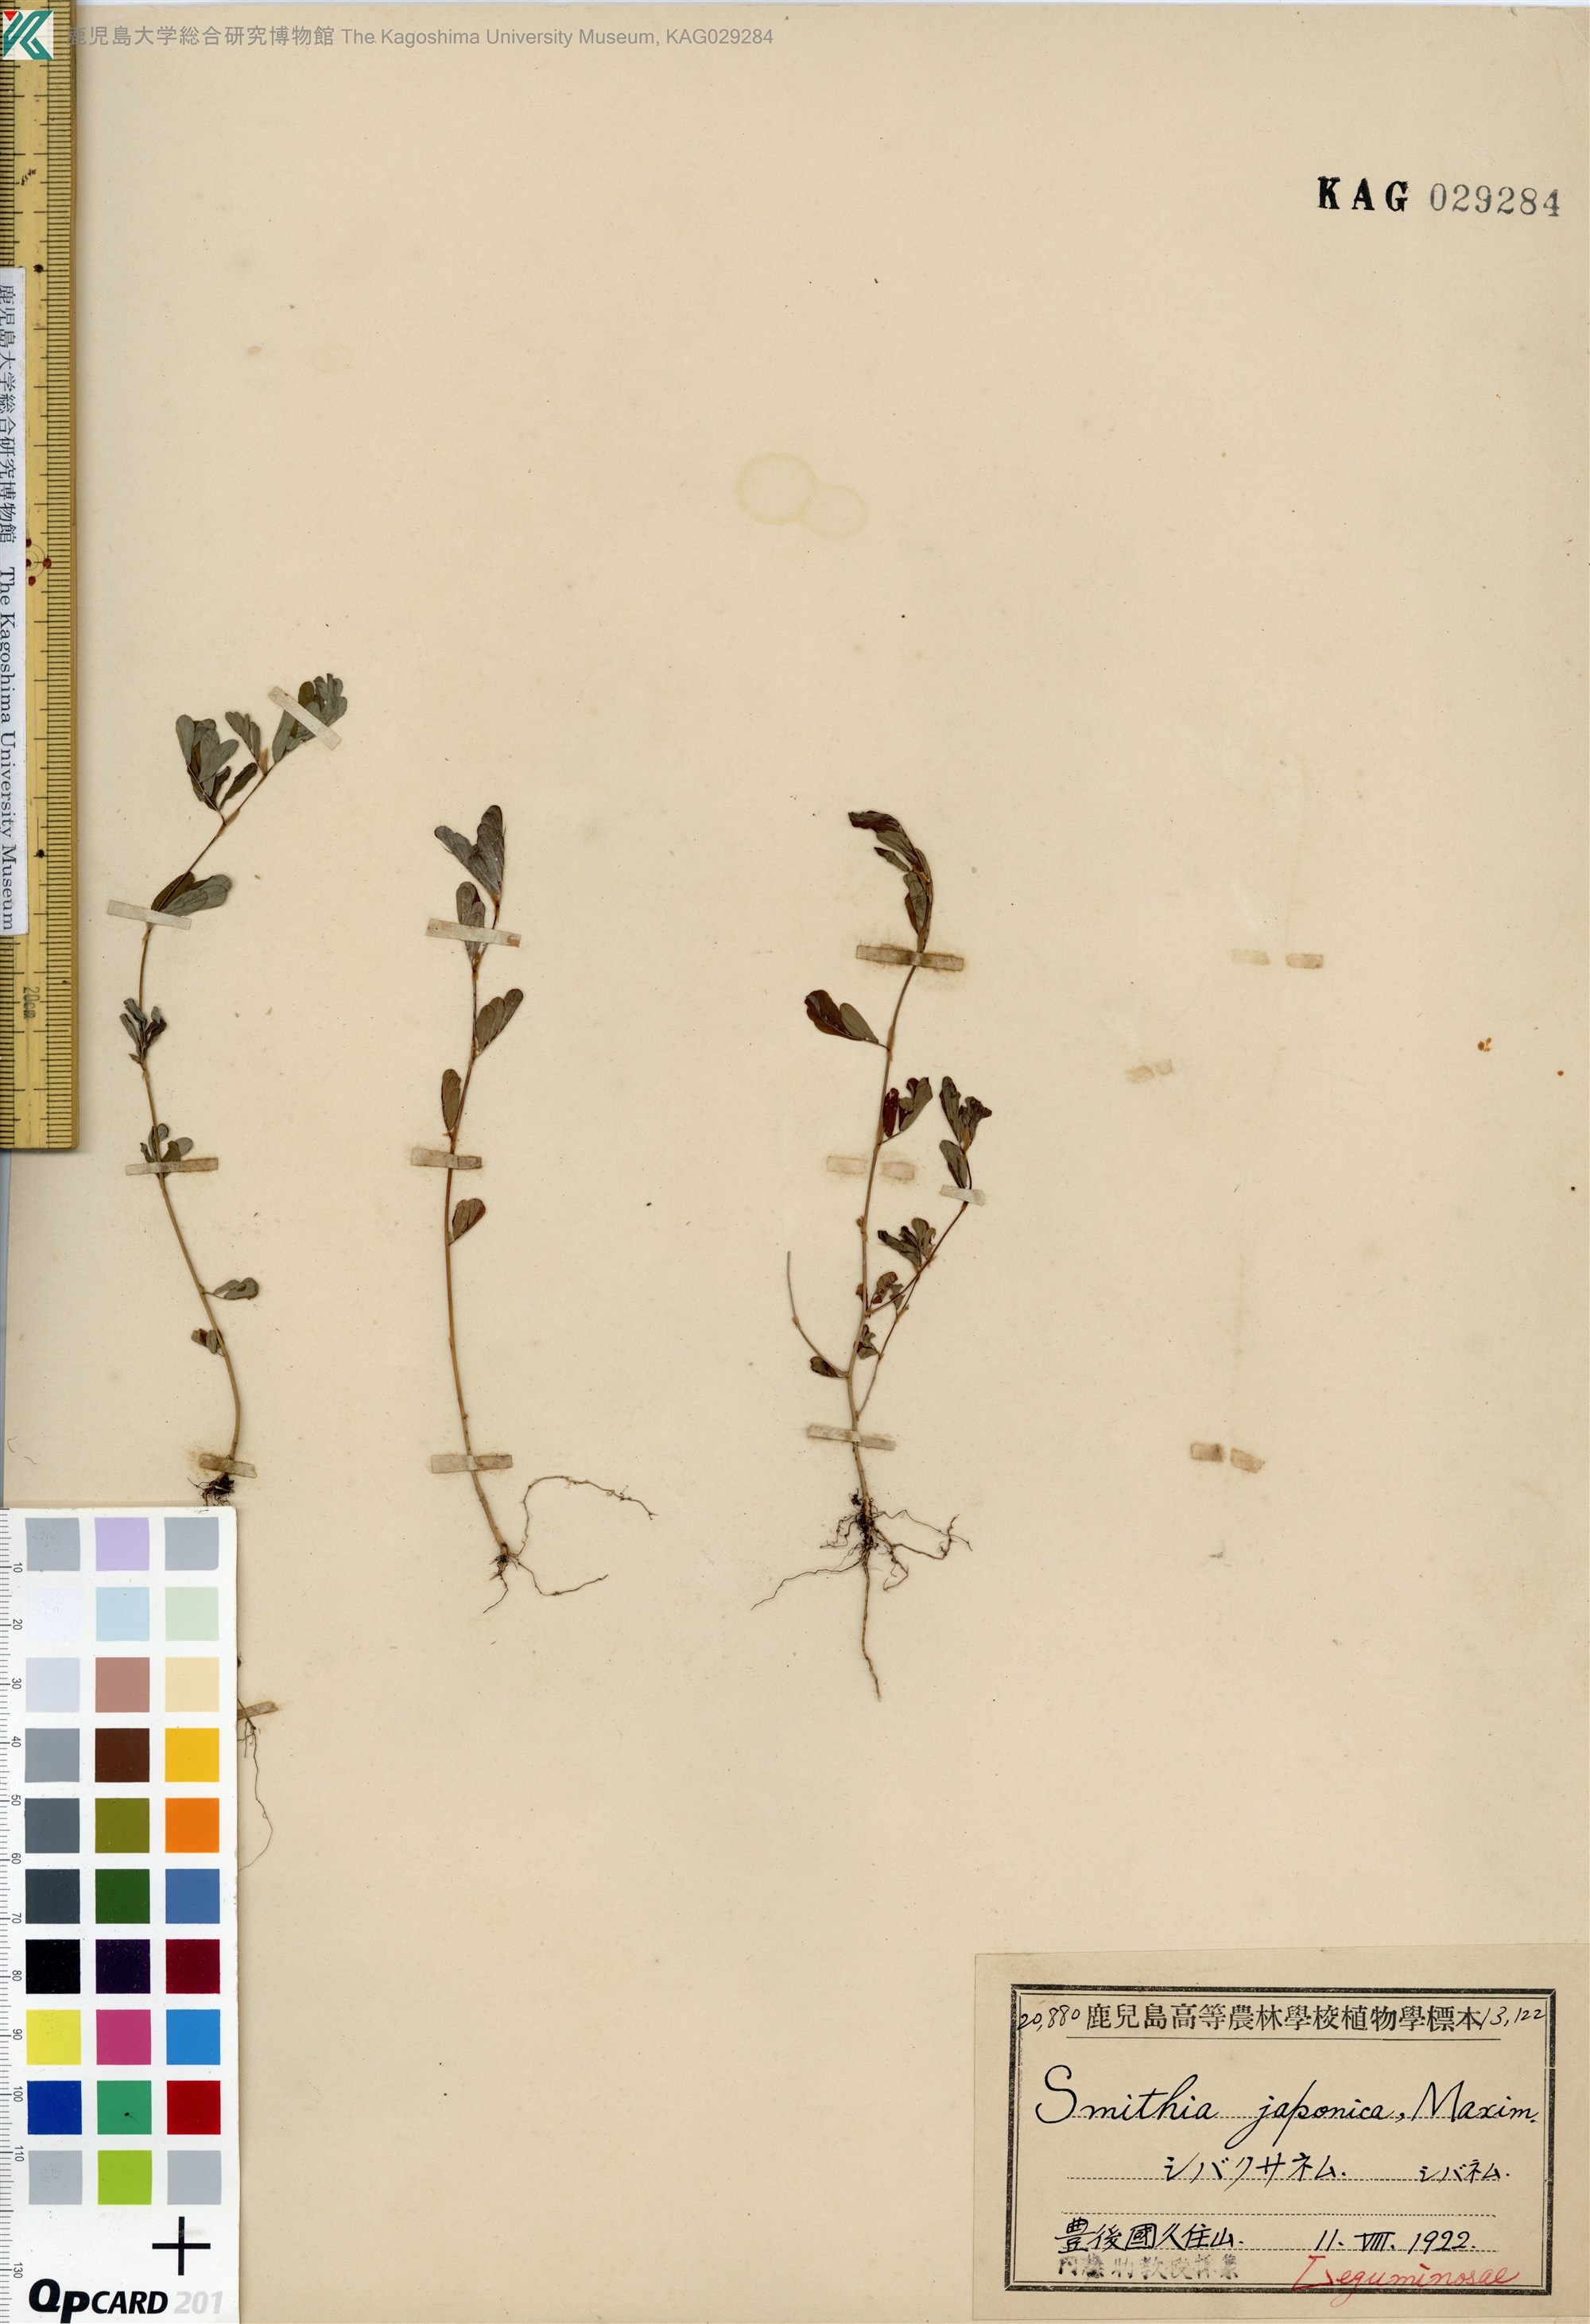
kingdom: Plantae
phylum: Tracheophyta
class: Magnoliopsida
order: Fabales
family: Fabaceae
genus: Smithia
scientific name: Smithia ciliata
